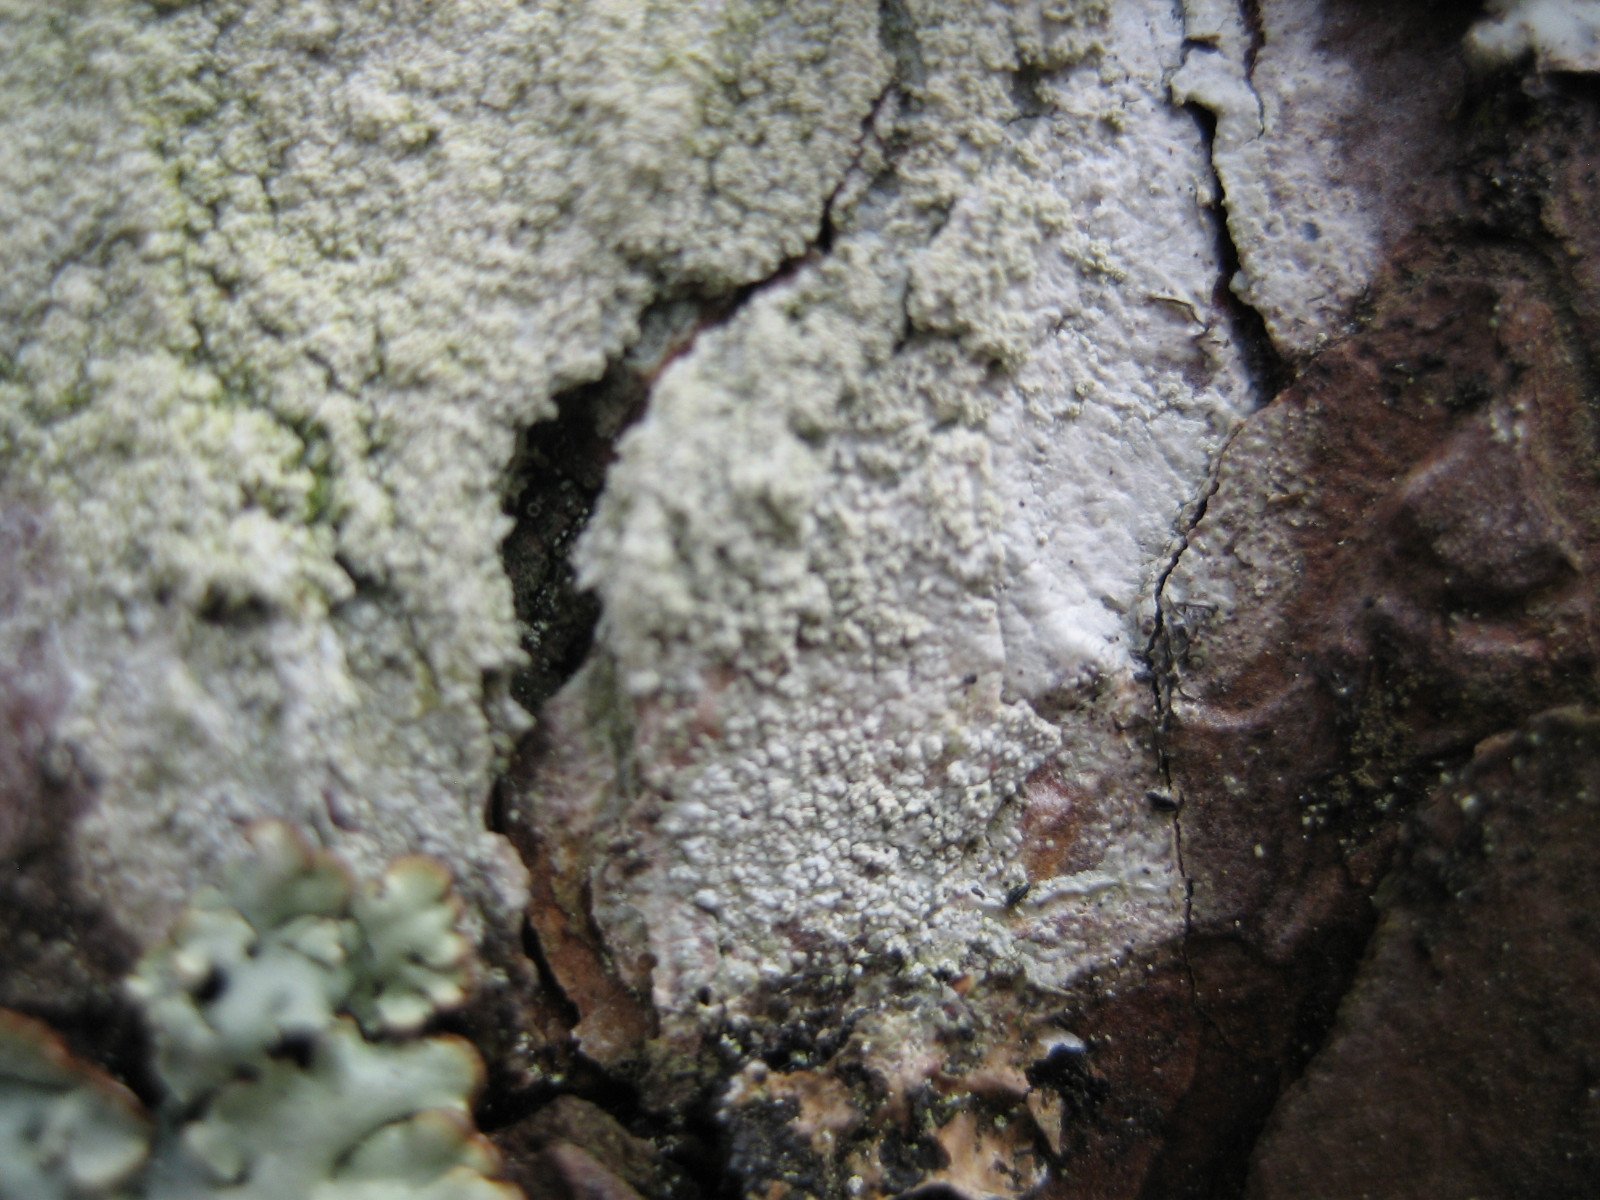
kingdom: Fungi
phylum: Ascomycota
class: Lecanoromycetes
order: Pertusariales
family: Ochrolechiaceae
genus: Ochrolechia
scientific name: Ochrolechia microstictoides
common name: udbredt blegskivelav
